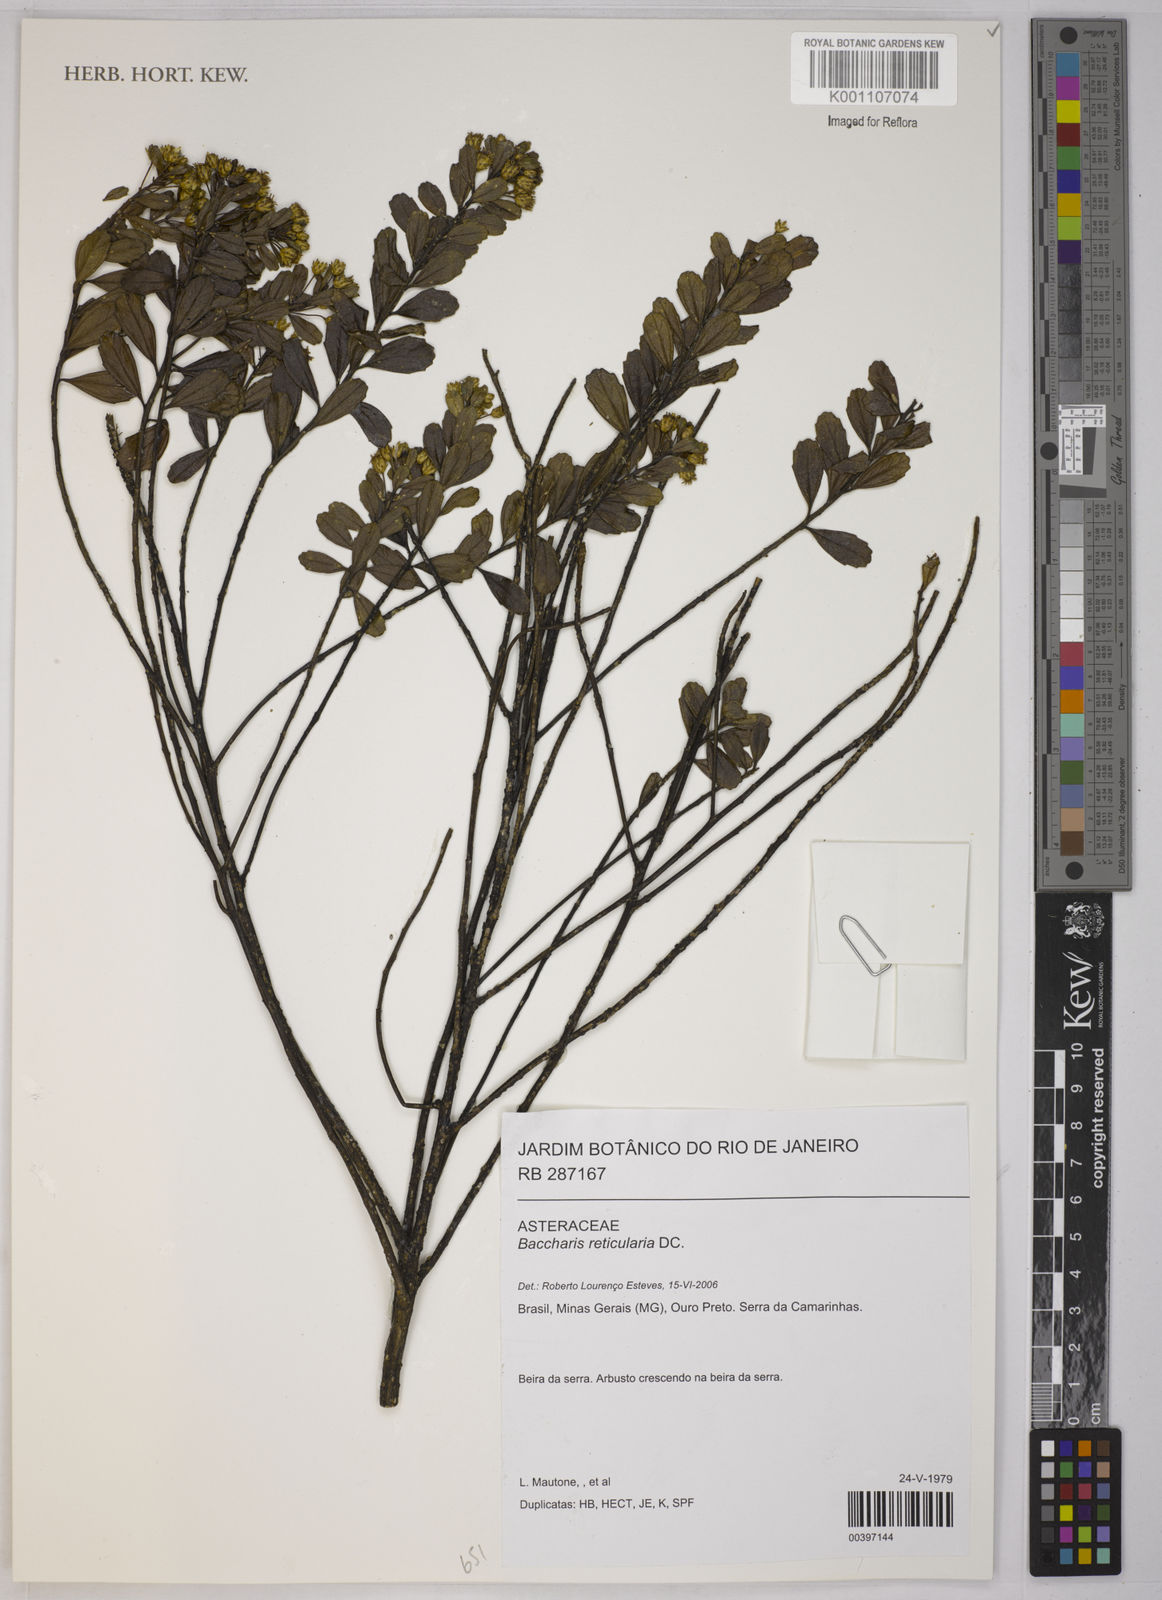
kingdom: Plantae
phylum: Tracheophyta
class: Magnoliopsida
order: Asterales
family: Asteraceae
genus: Baccharis
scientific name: Baccharis reticularia
